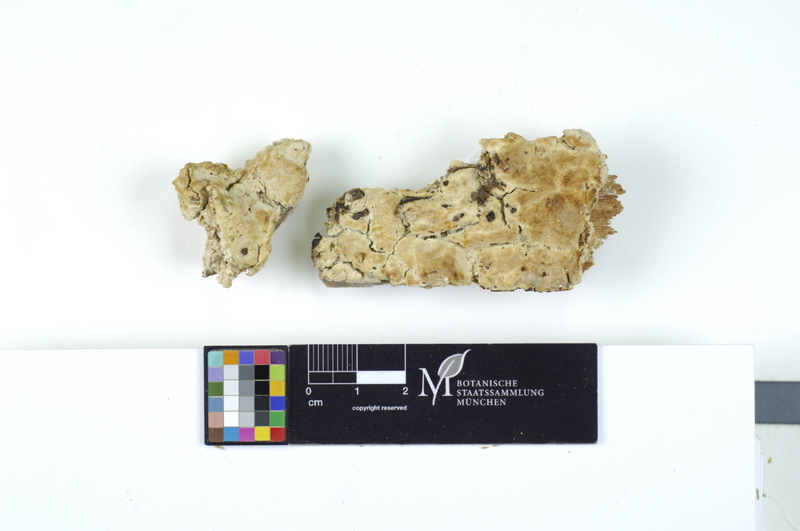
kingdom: Fungi
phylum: Basidiomycota
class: Agaricomycetes
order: Polyporales
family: Fomitopsidaceae
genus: Daedalea
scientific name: Daedalea xantha
